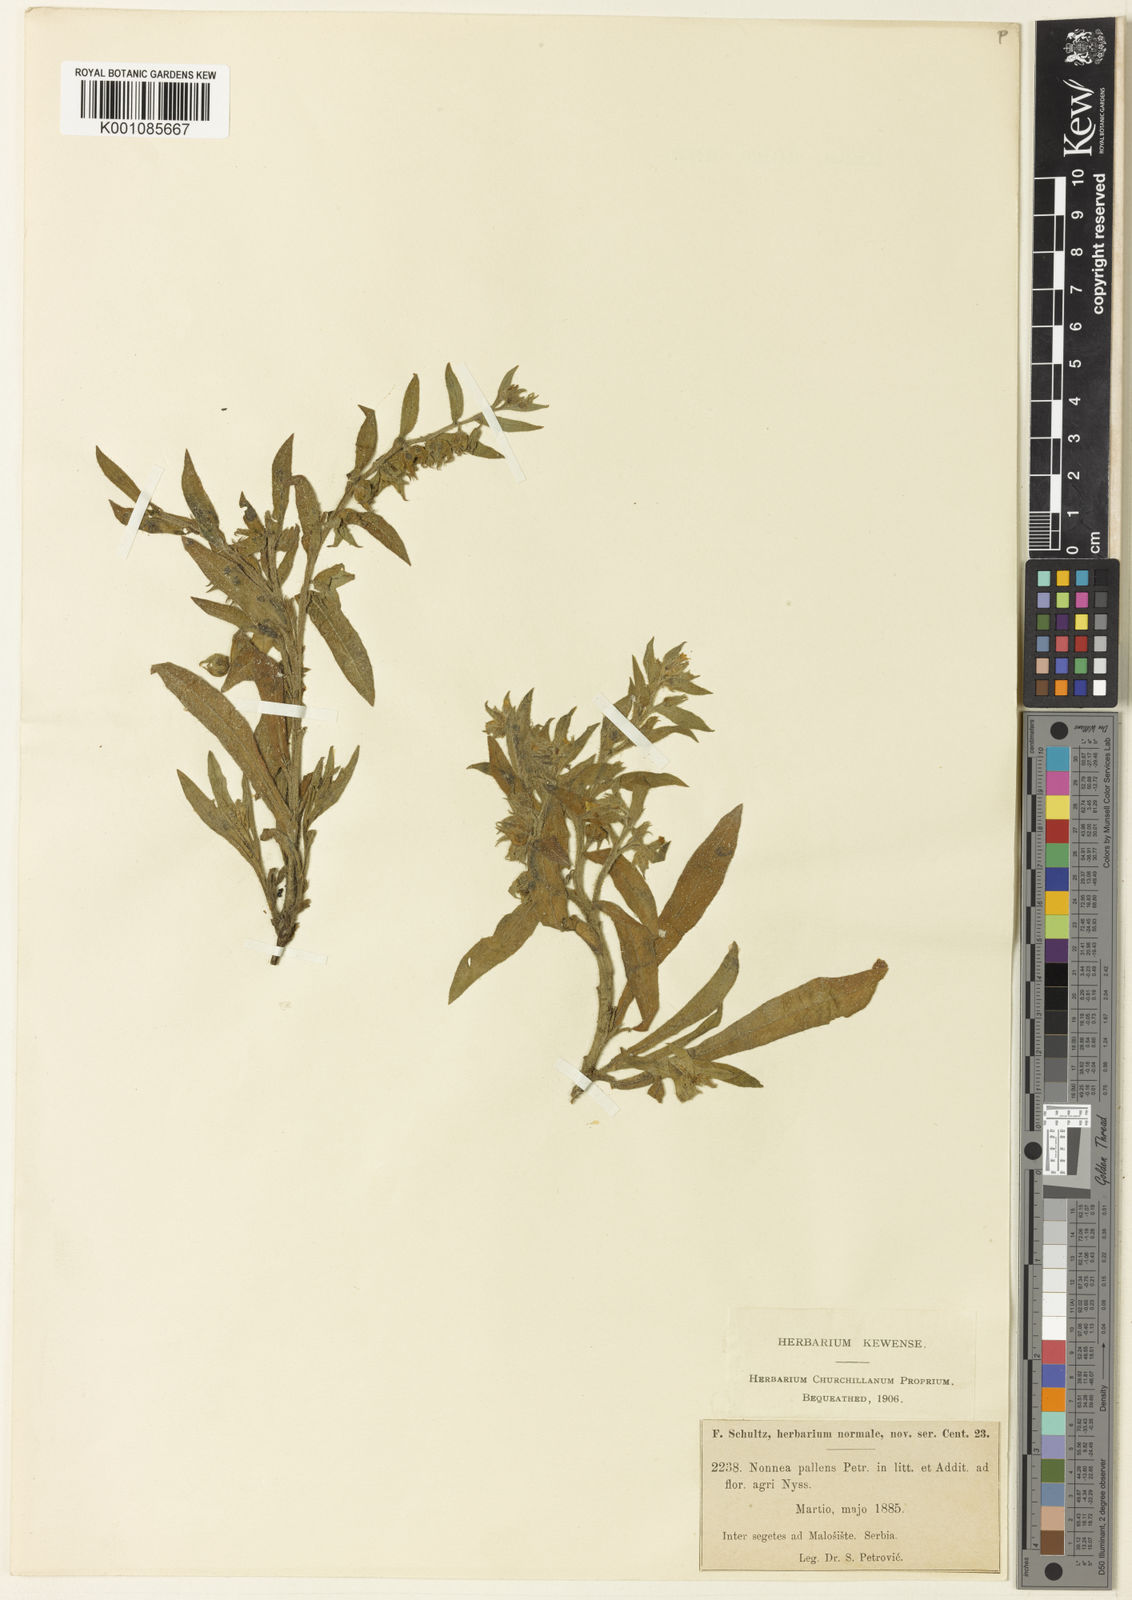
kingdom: Plantae
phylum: Tracheophyta
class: Magnoliopsida
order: Boraginales
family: Boraginaceae
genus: Nonea
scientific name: Nonea pallens
